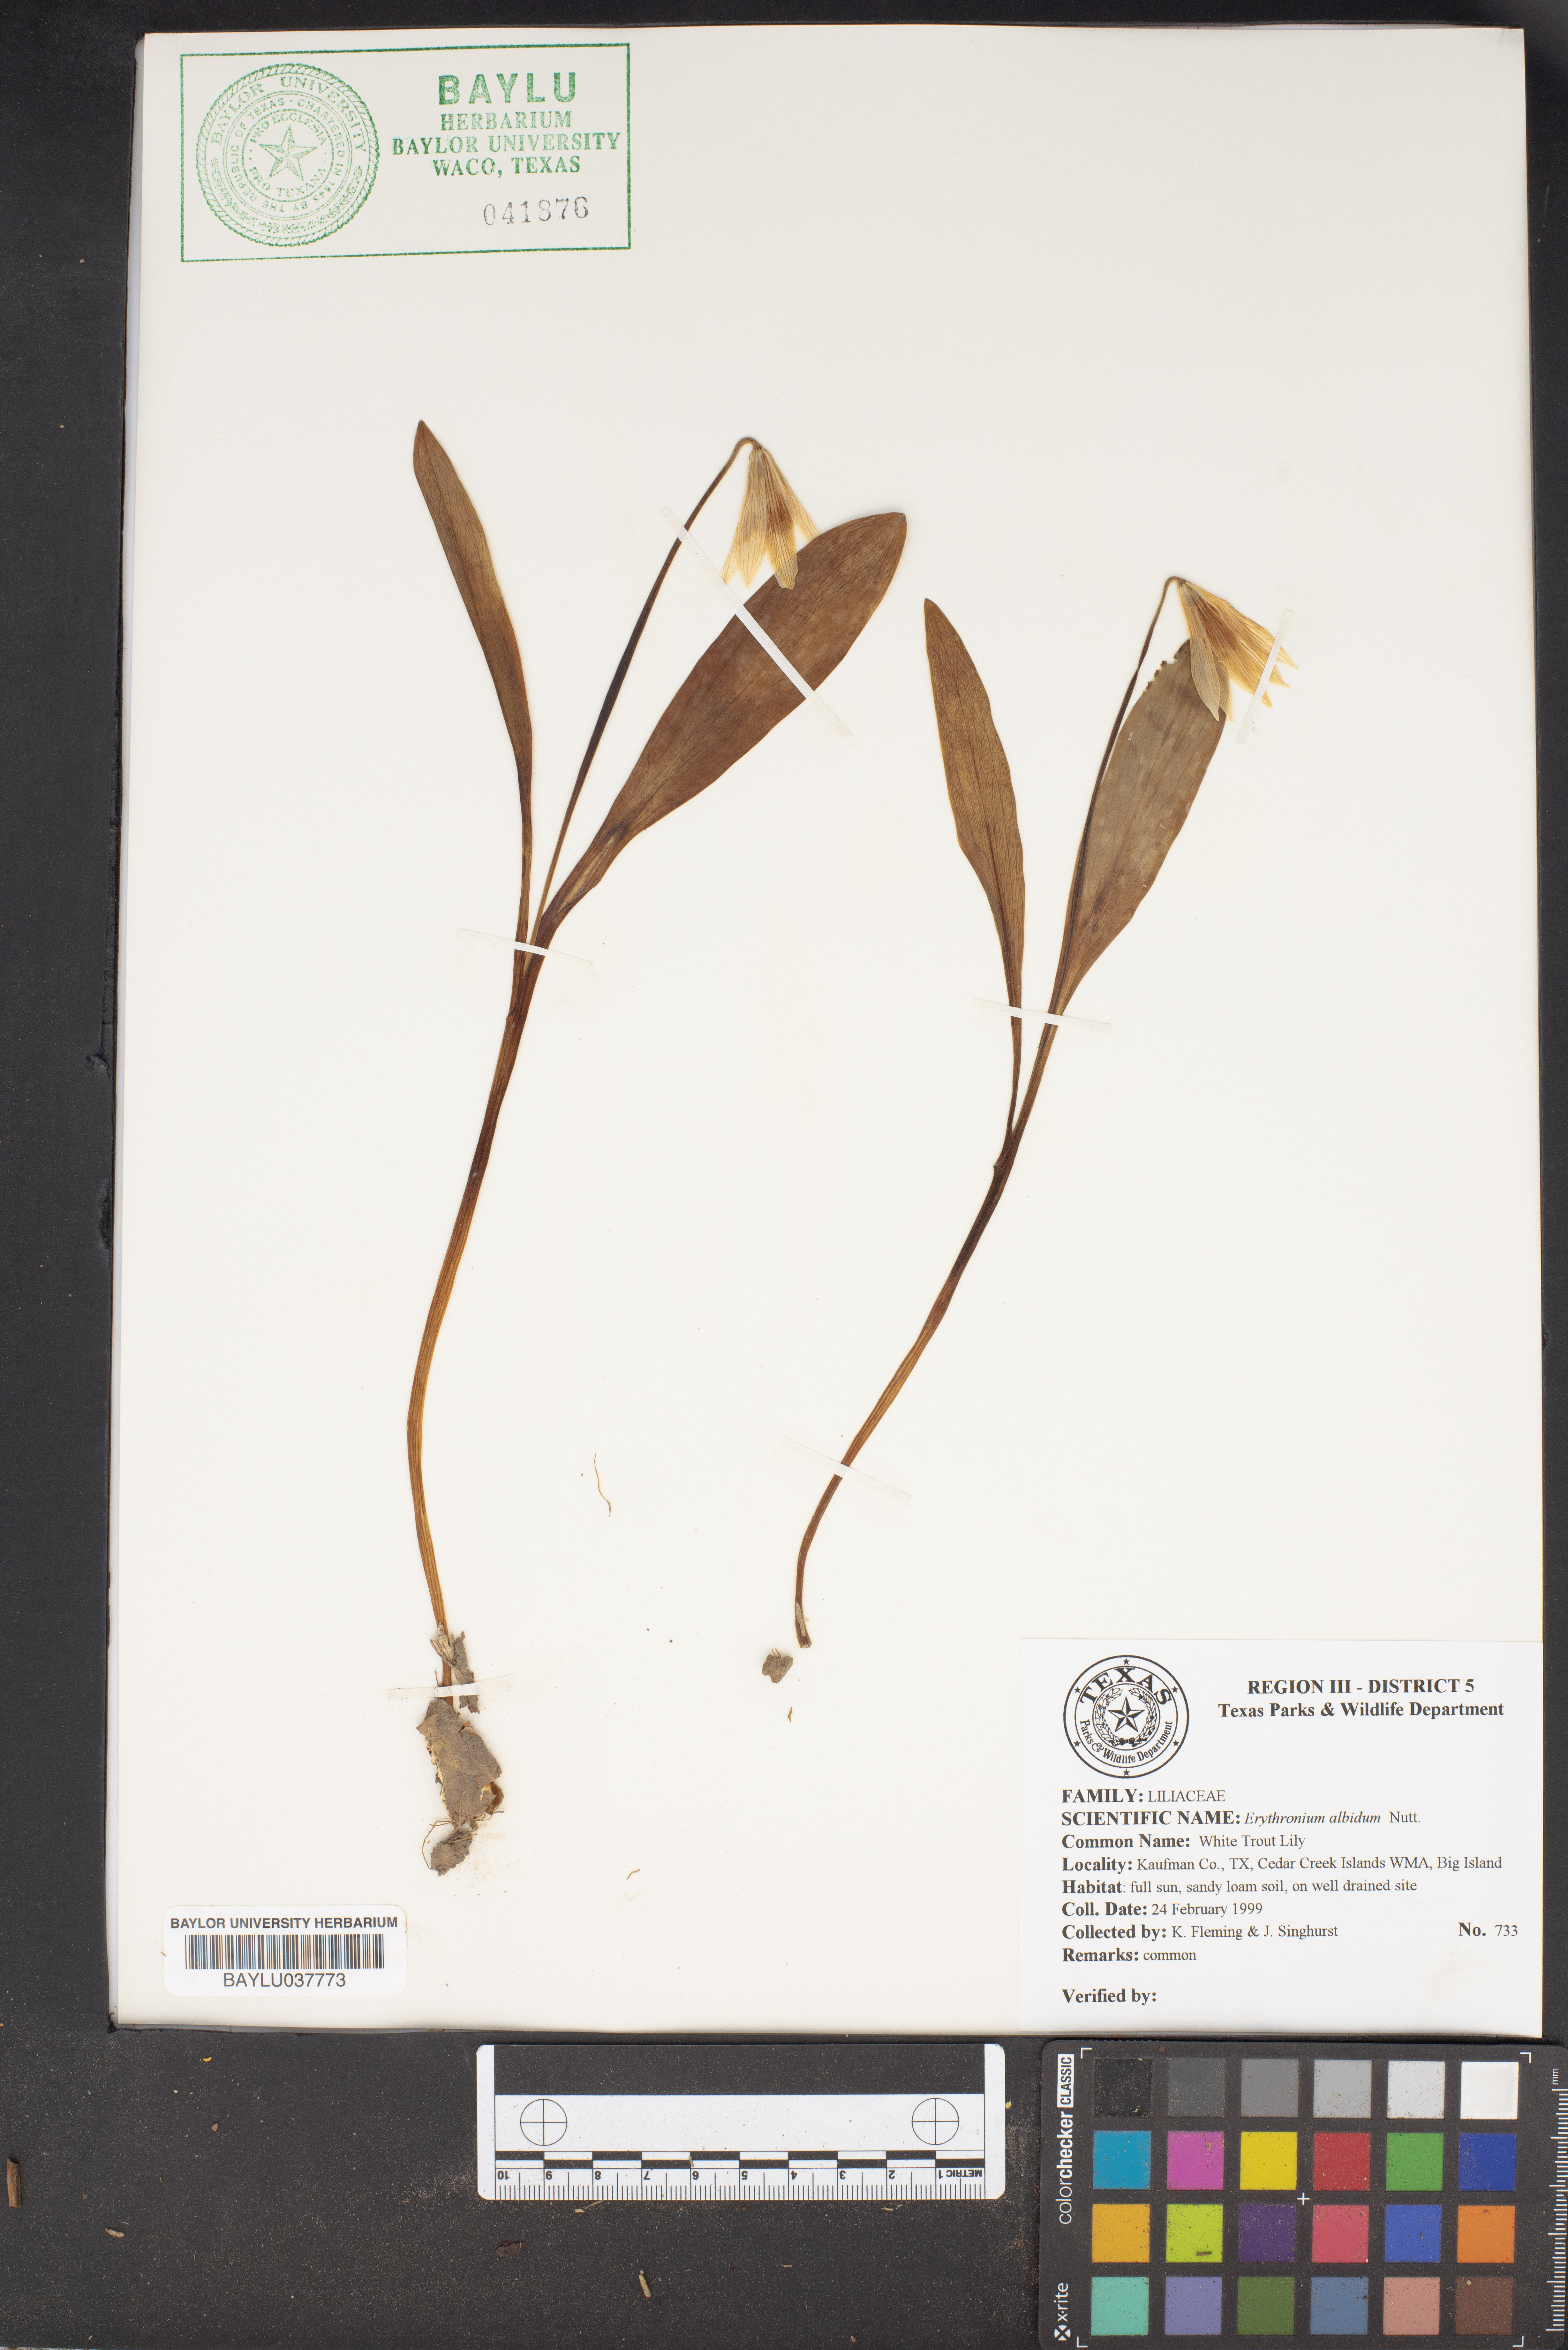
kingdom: Plantae
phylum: Tracheophyta
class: Liliopsida
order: Liliales
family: Liliaceae
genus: Erythronium
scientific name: Erythronium albidum
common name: White trout-lily
